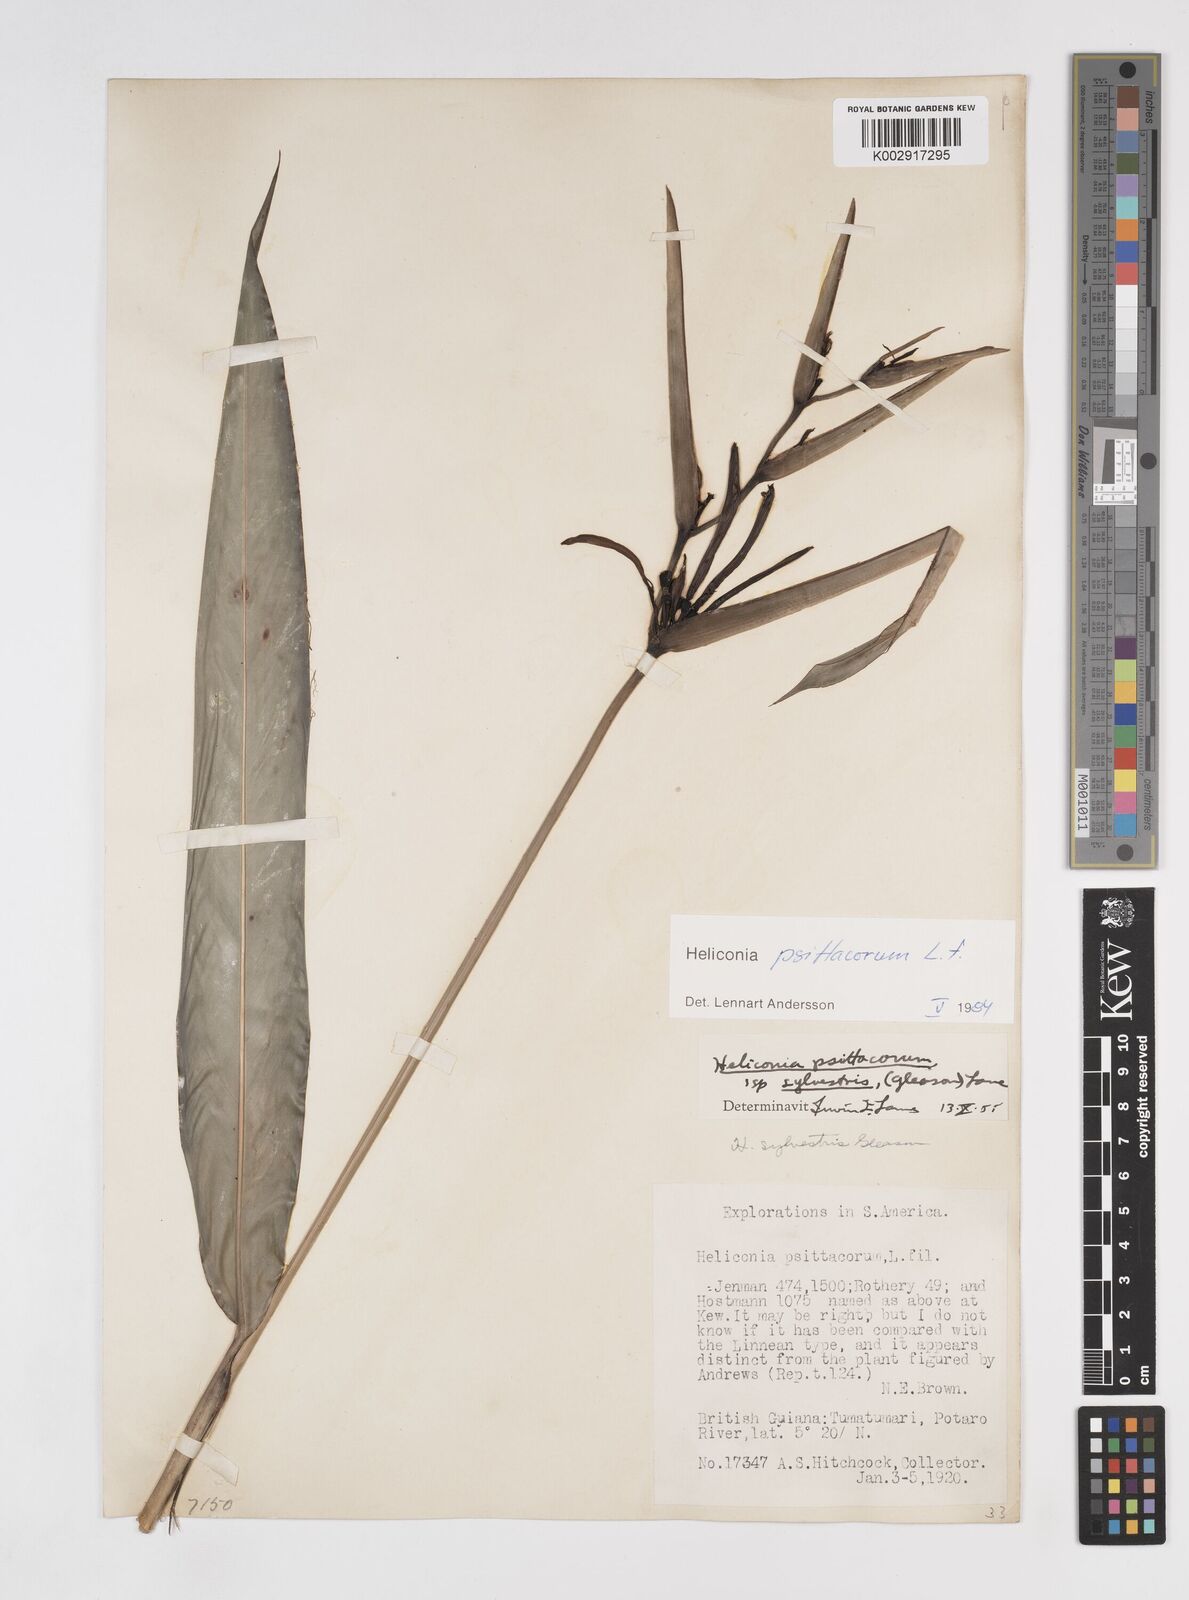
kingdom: Plantae
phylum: Tracheophyta
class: Liliopsida
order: Zingiberales
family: Heliconiaceae
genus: Heliconia
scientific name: Heliconia psittacorum
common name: Parrot's-flower
